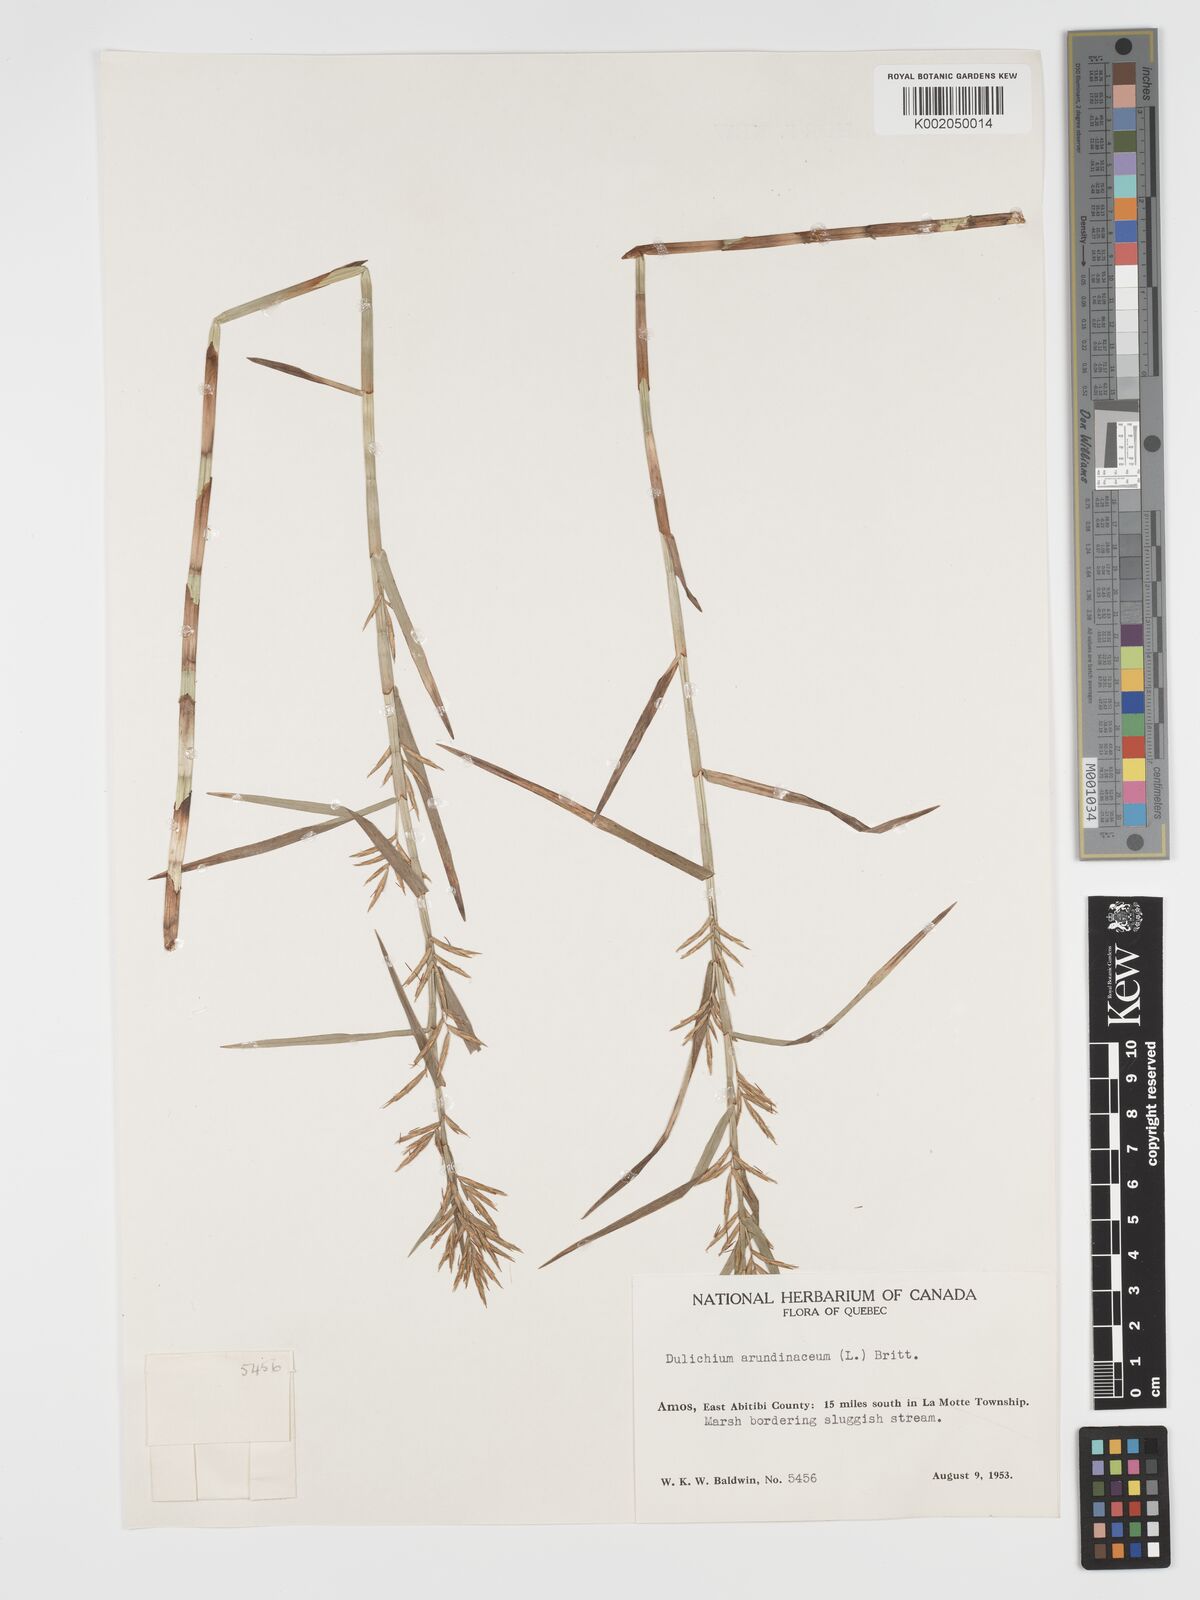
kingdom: Plantae
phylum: Tracheophyta
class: Liliopsida
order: Poales
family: Cyperaceae
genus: Dulichium
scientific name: Dulichium arundinaceum
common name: Three-way sedge
